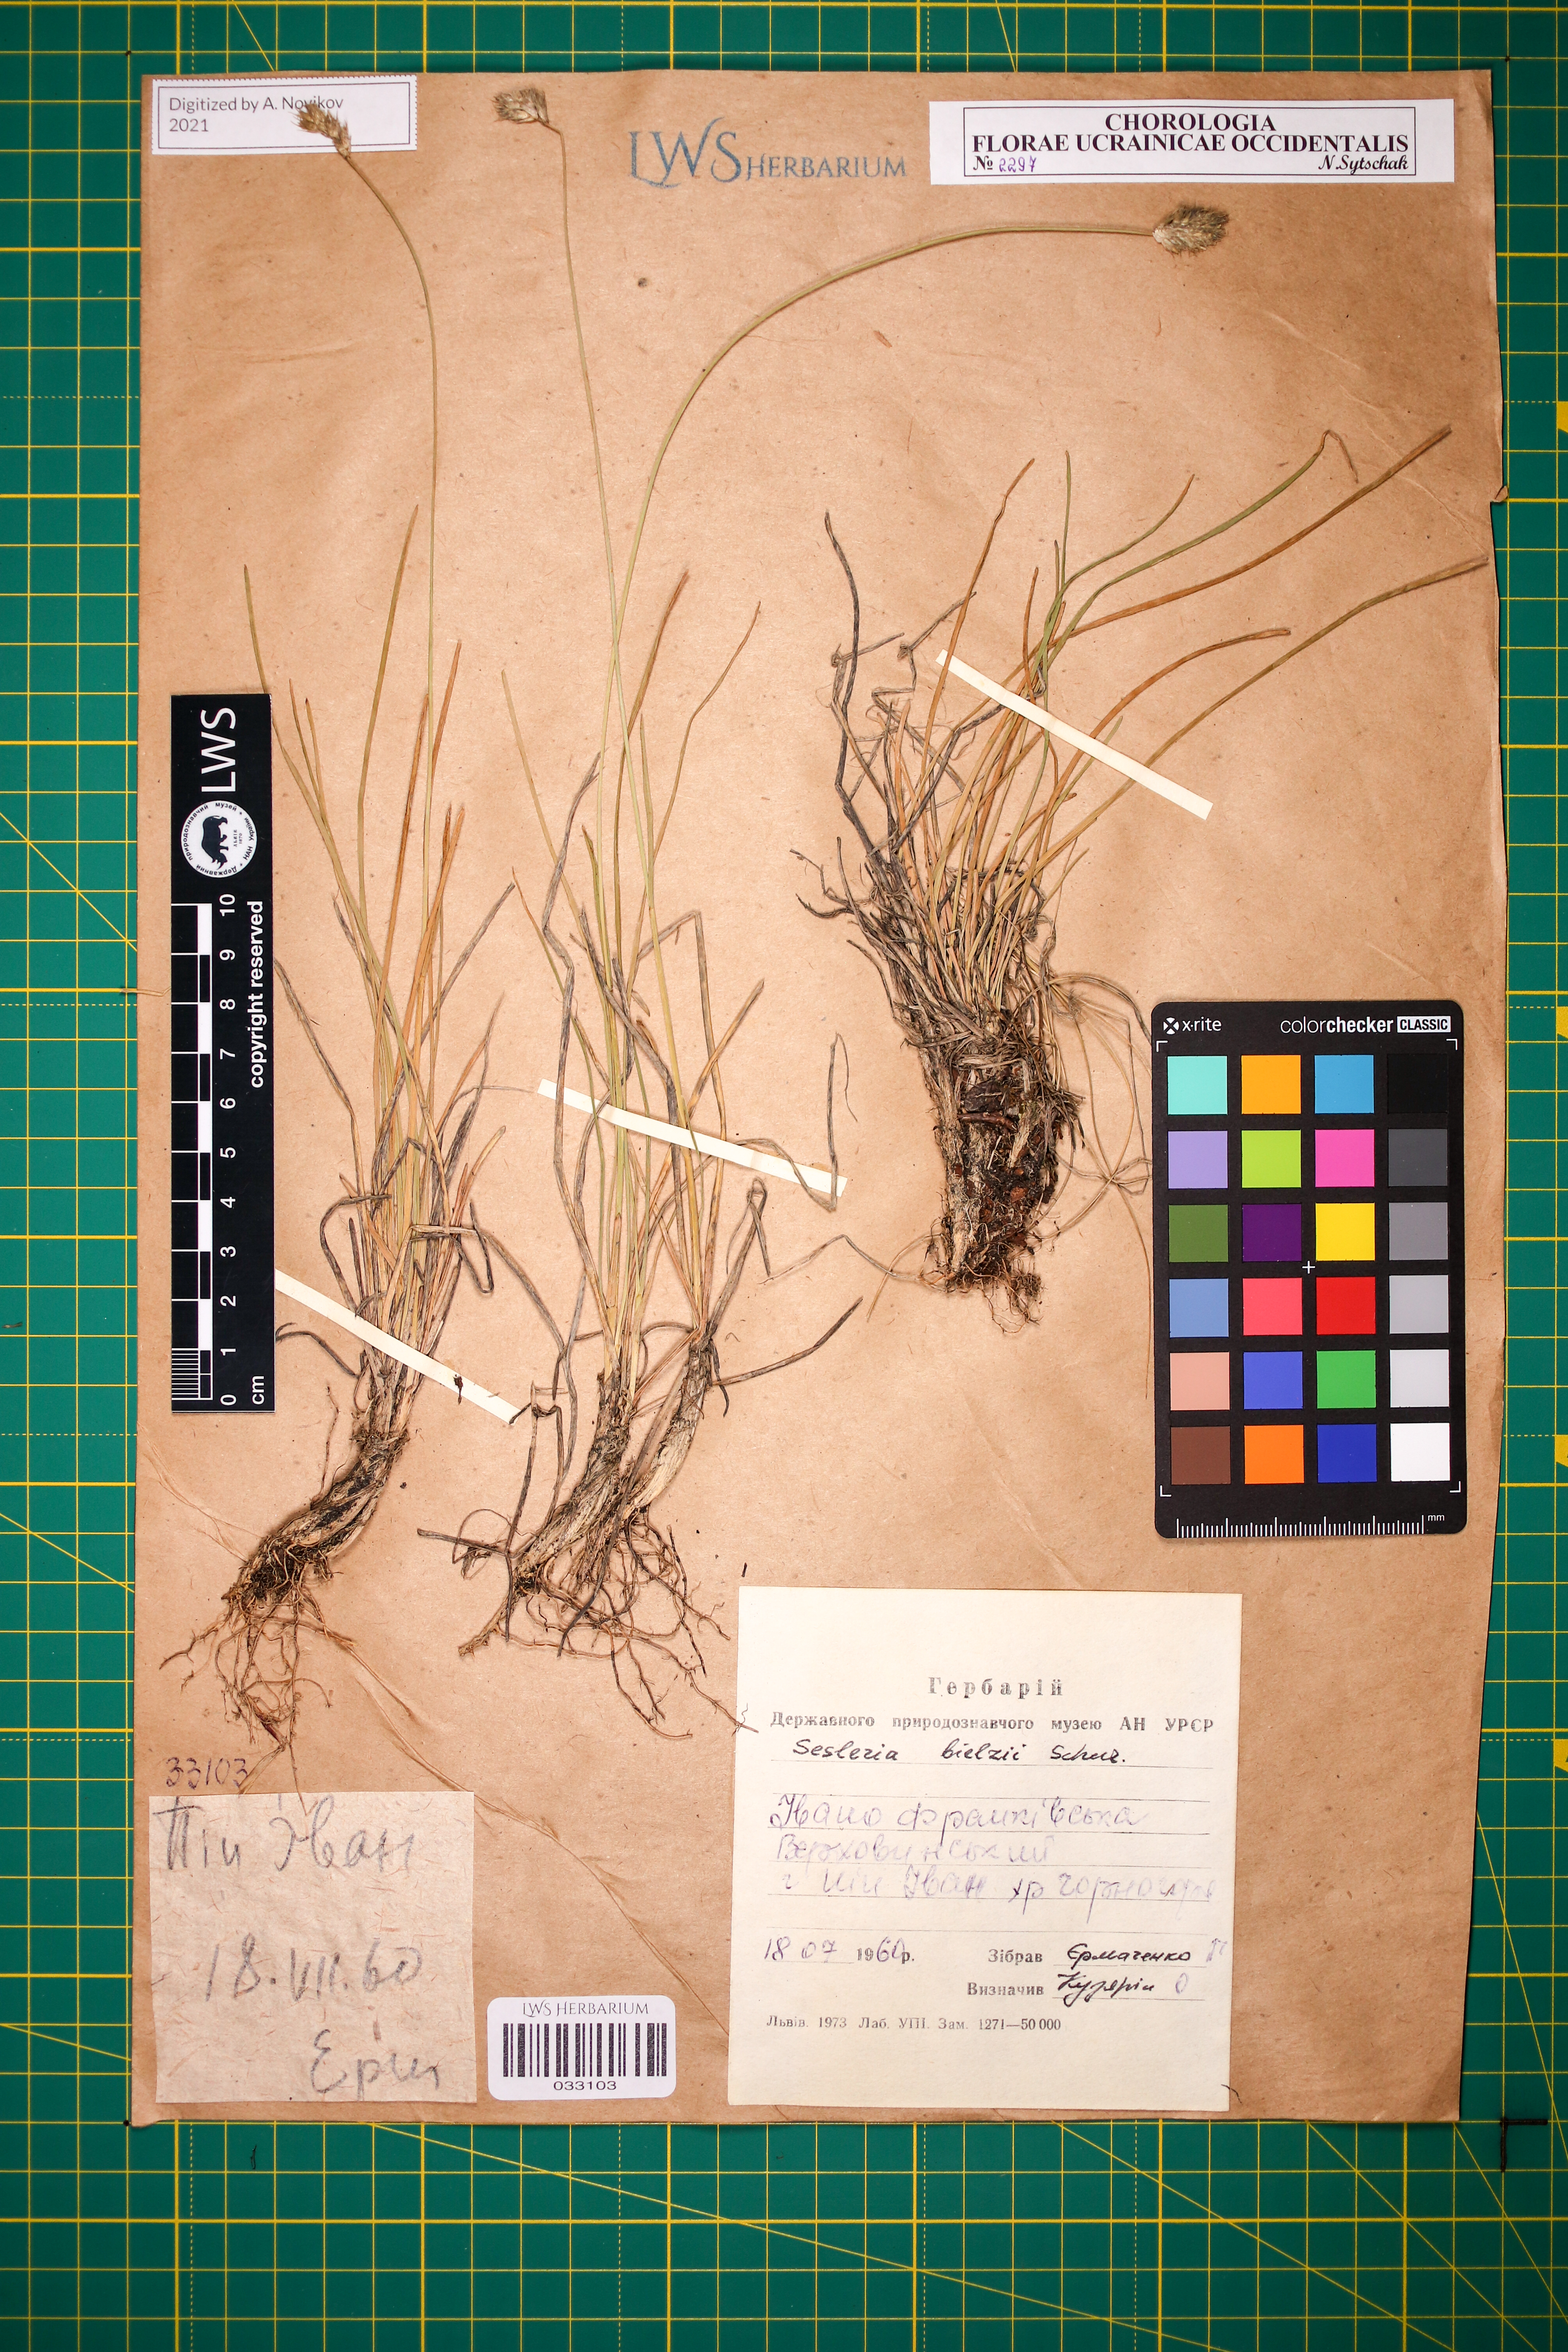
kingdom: Plantae
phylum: Tracheophyta
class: Liliopsida
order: Poales
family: Poaceae
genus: Sesleria
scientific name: Sesleria bielzii
